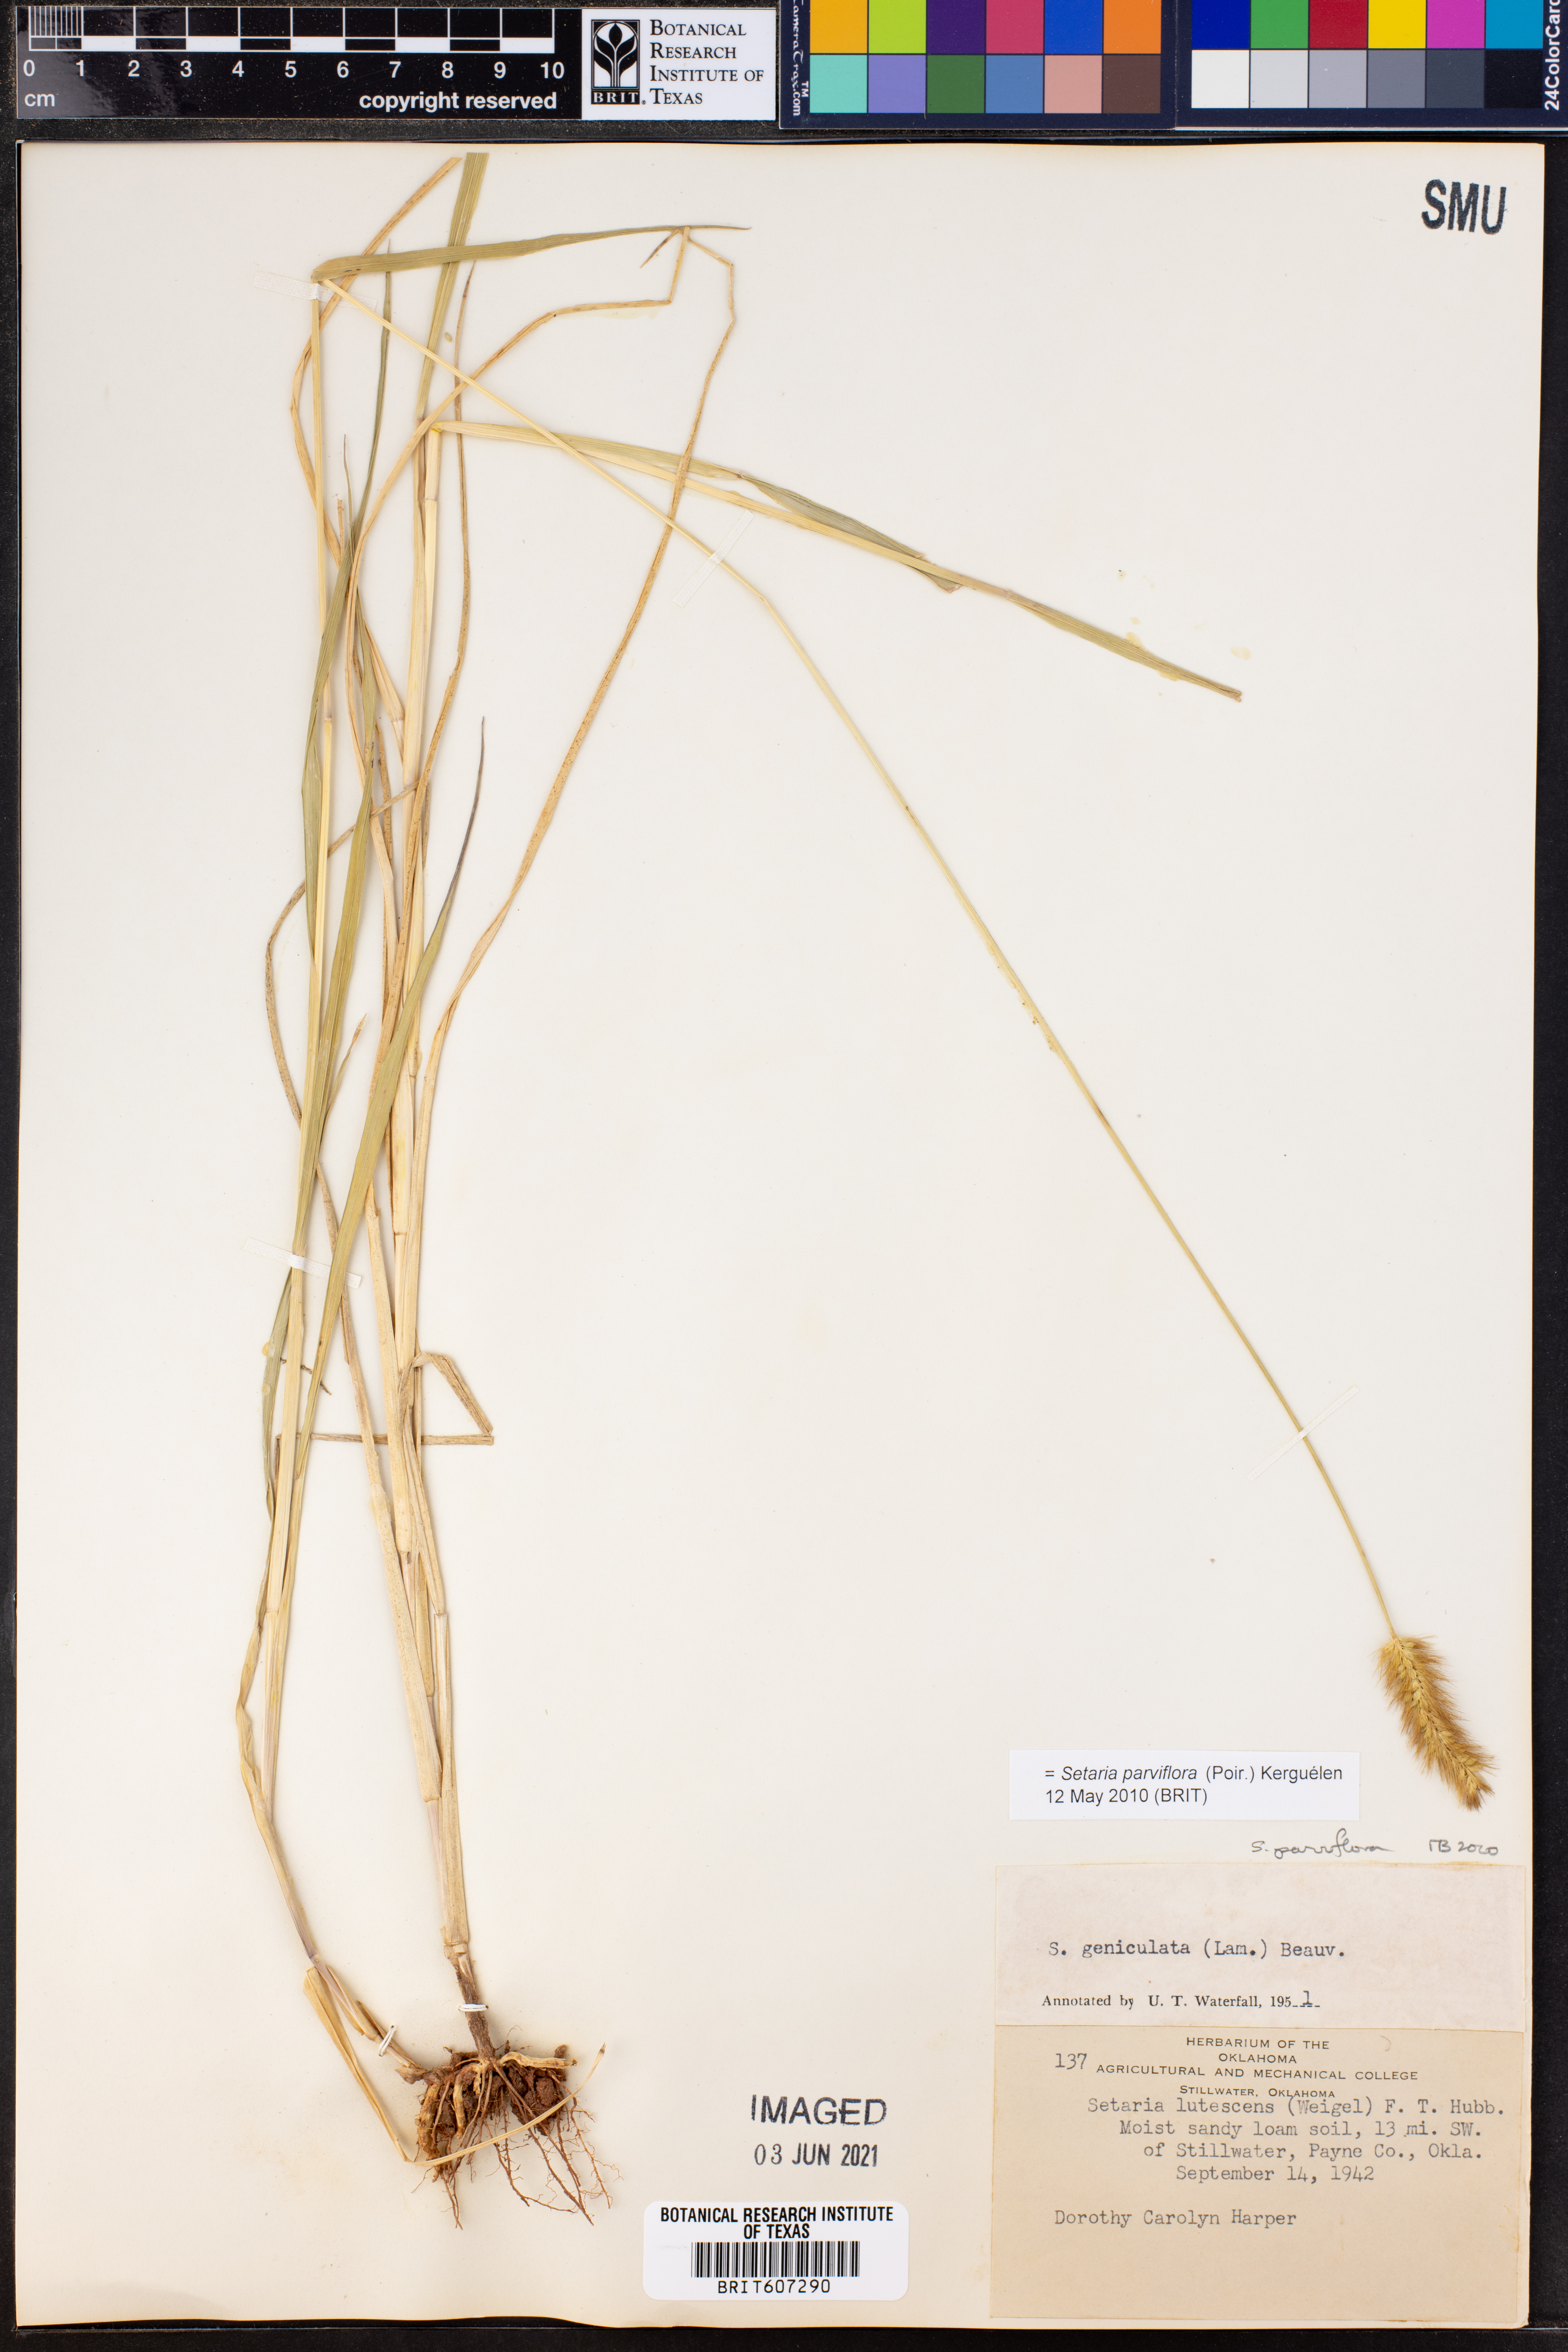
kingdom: Plantae
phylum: Tracheophyta
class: Liliopsida
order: Poales
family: Poaceae
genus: Setaria
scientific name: Setaria parviflora
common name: Knotroot bristle-grass
